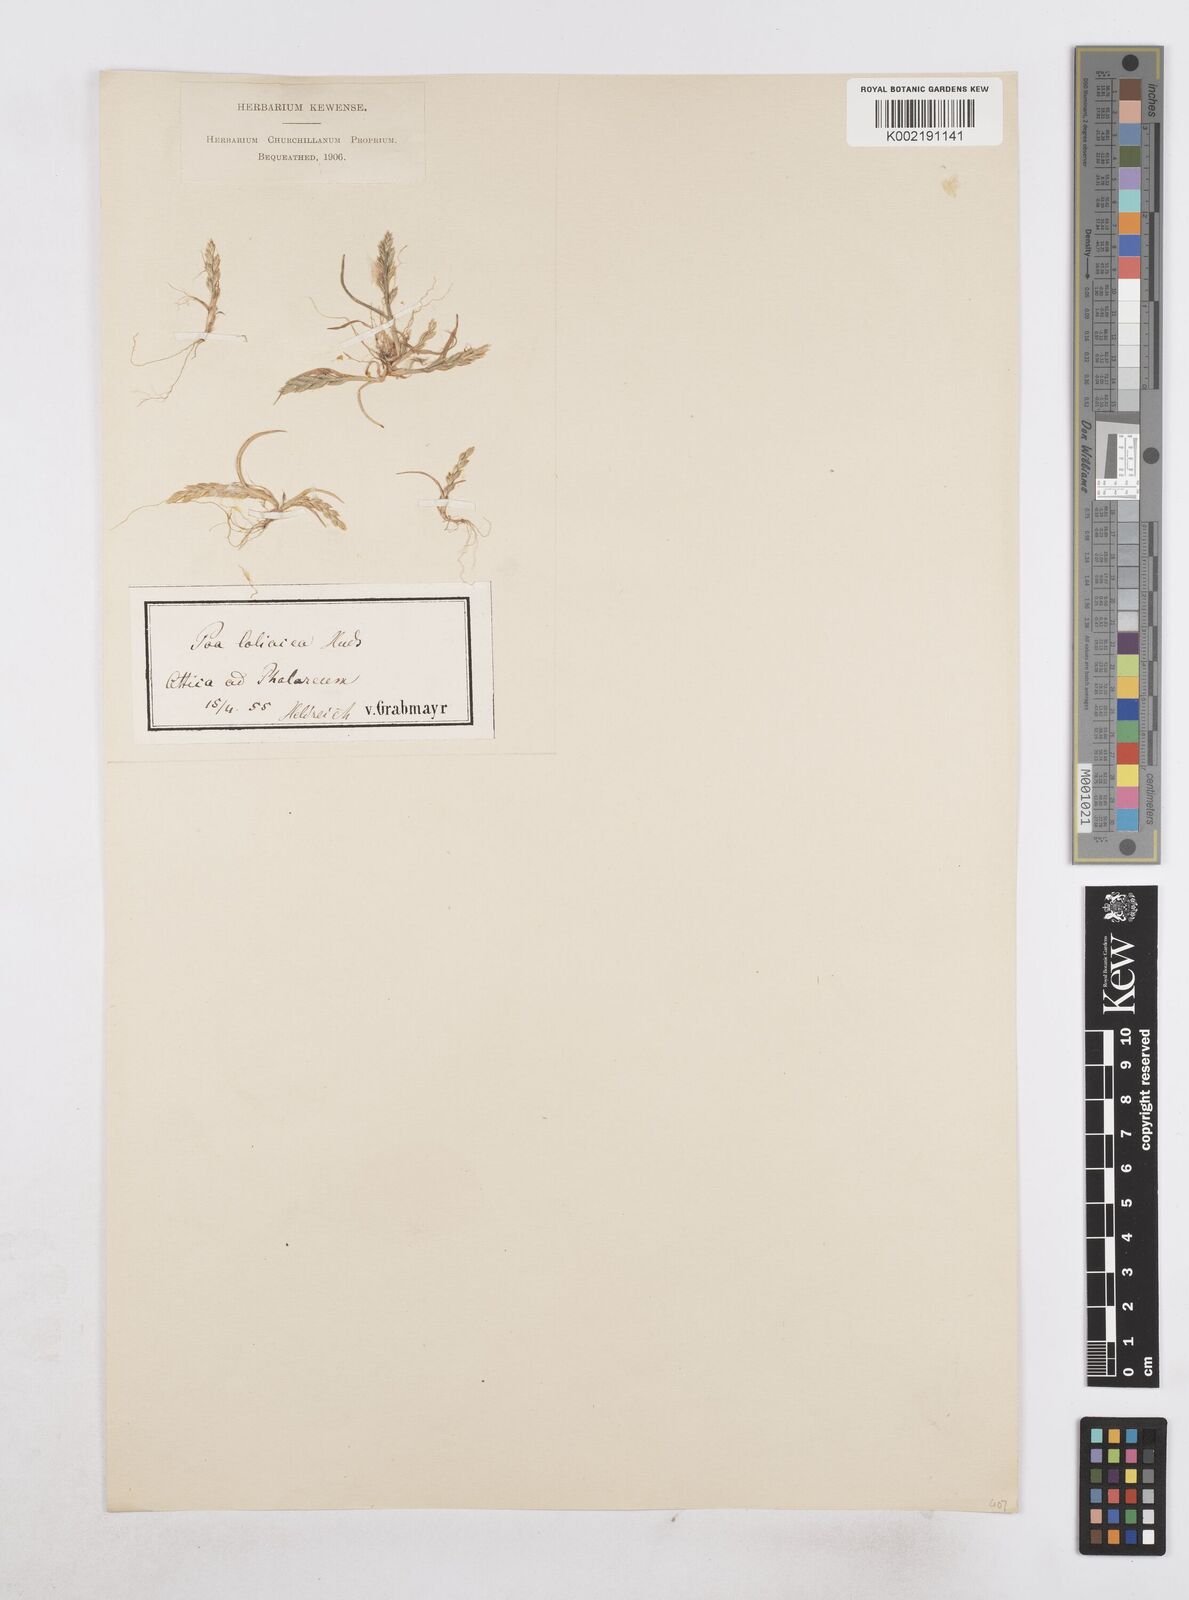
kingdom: Plantae
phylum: Tracheophyta
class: Liliopsida
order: Poales
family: Poaceae
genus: Catapodium
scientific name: Catapodium marinum
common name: Sea fern-grass
